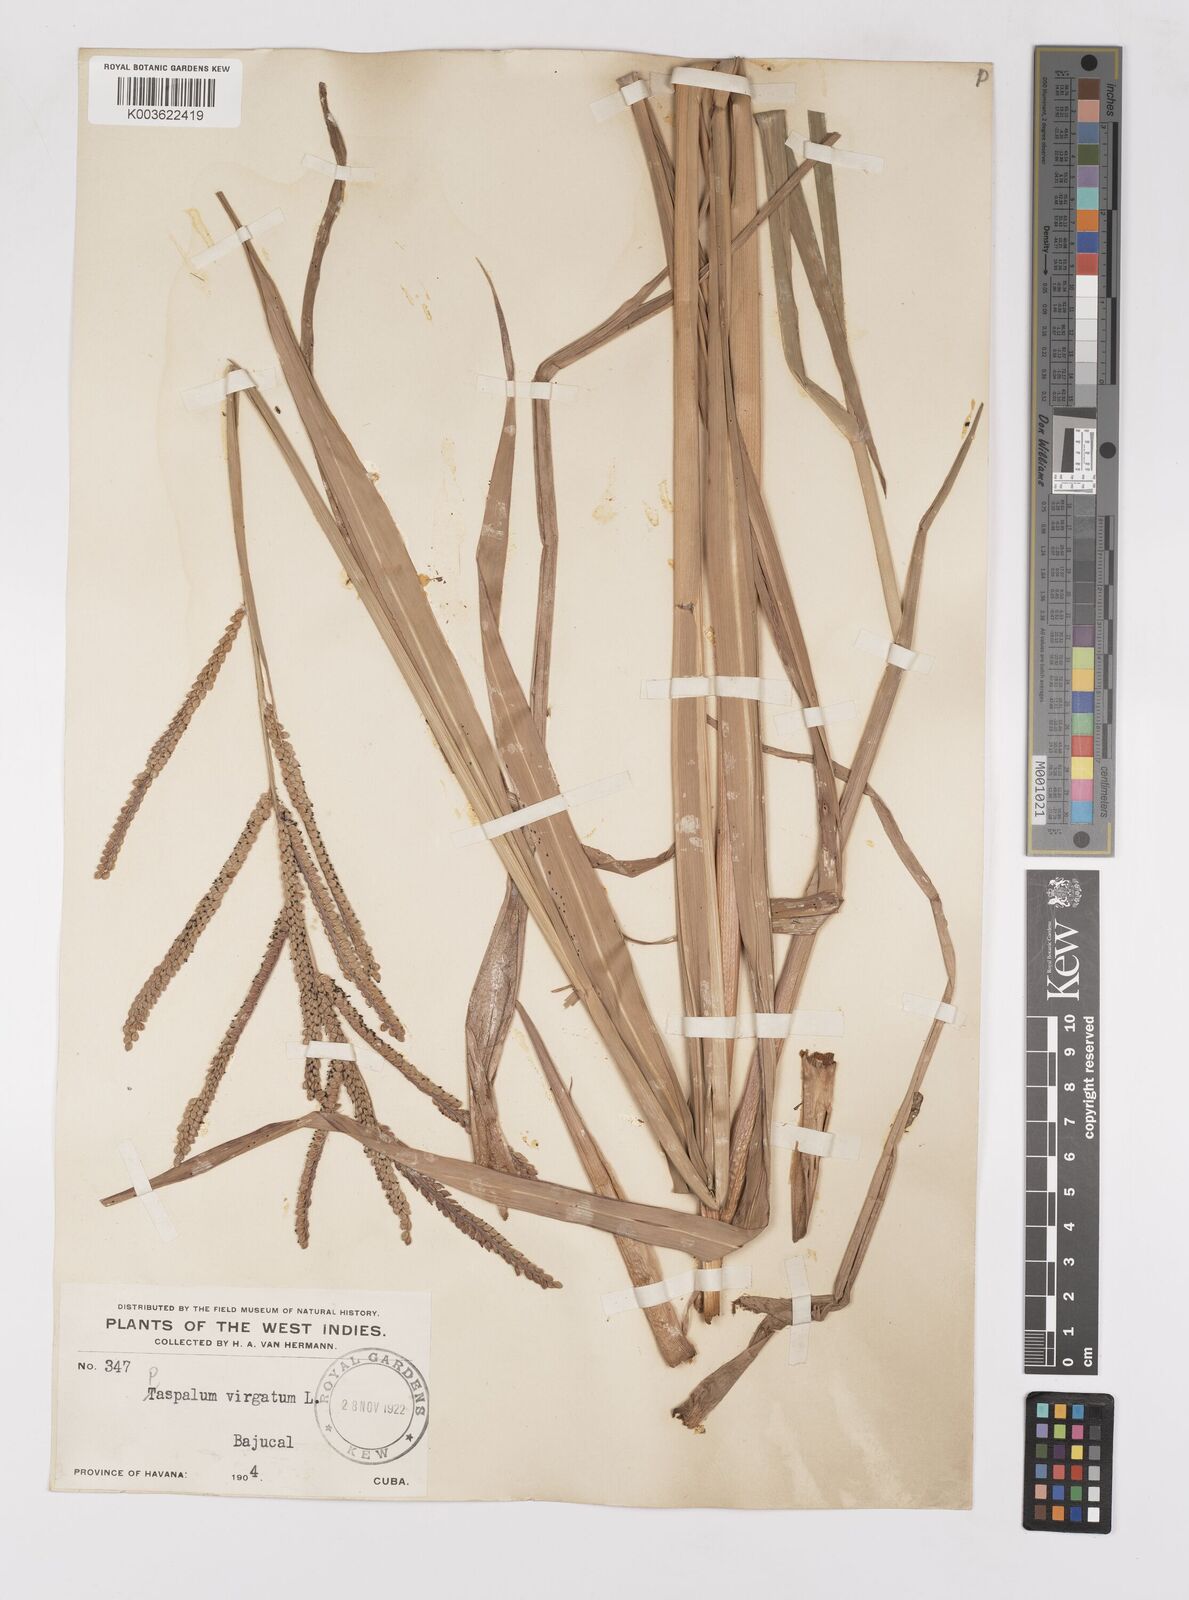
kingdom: Plantae
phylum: Tracheophyta
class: Liliopsida
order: Poales
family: Poaceae
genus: Paspalum
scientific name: Paspalum virgatum
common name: Talquezal
